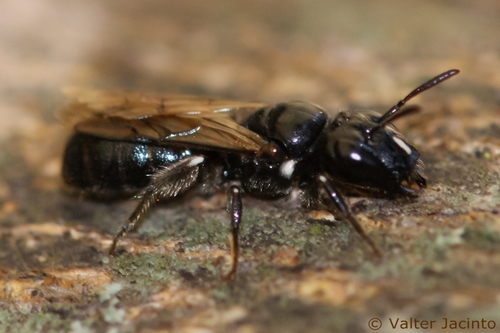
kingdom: Animalia
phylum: Arthropoda
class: Insecta
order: Hymenoptera
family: Apidae
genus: Ceratina
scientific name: Ceratina cucurbitina
